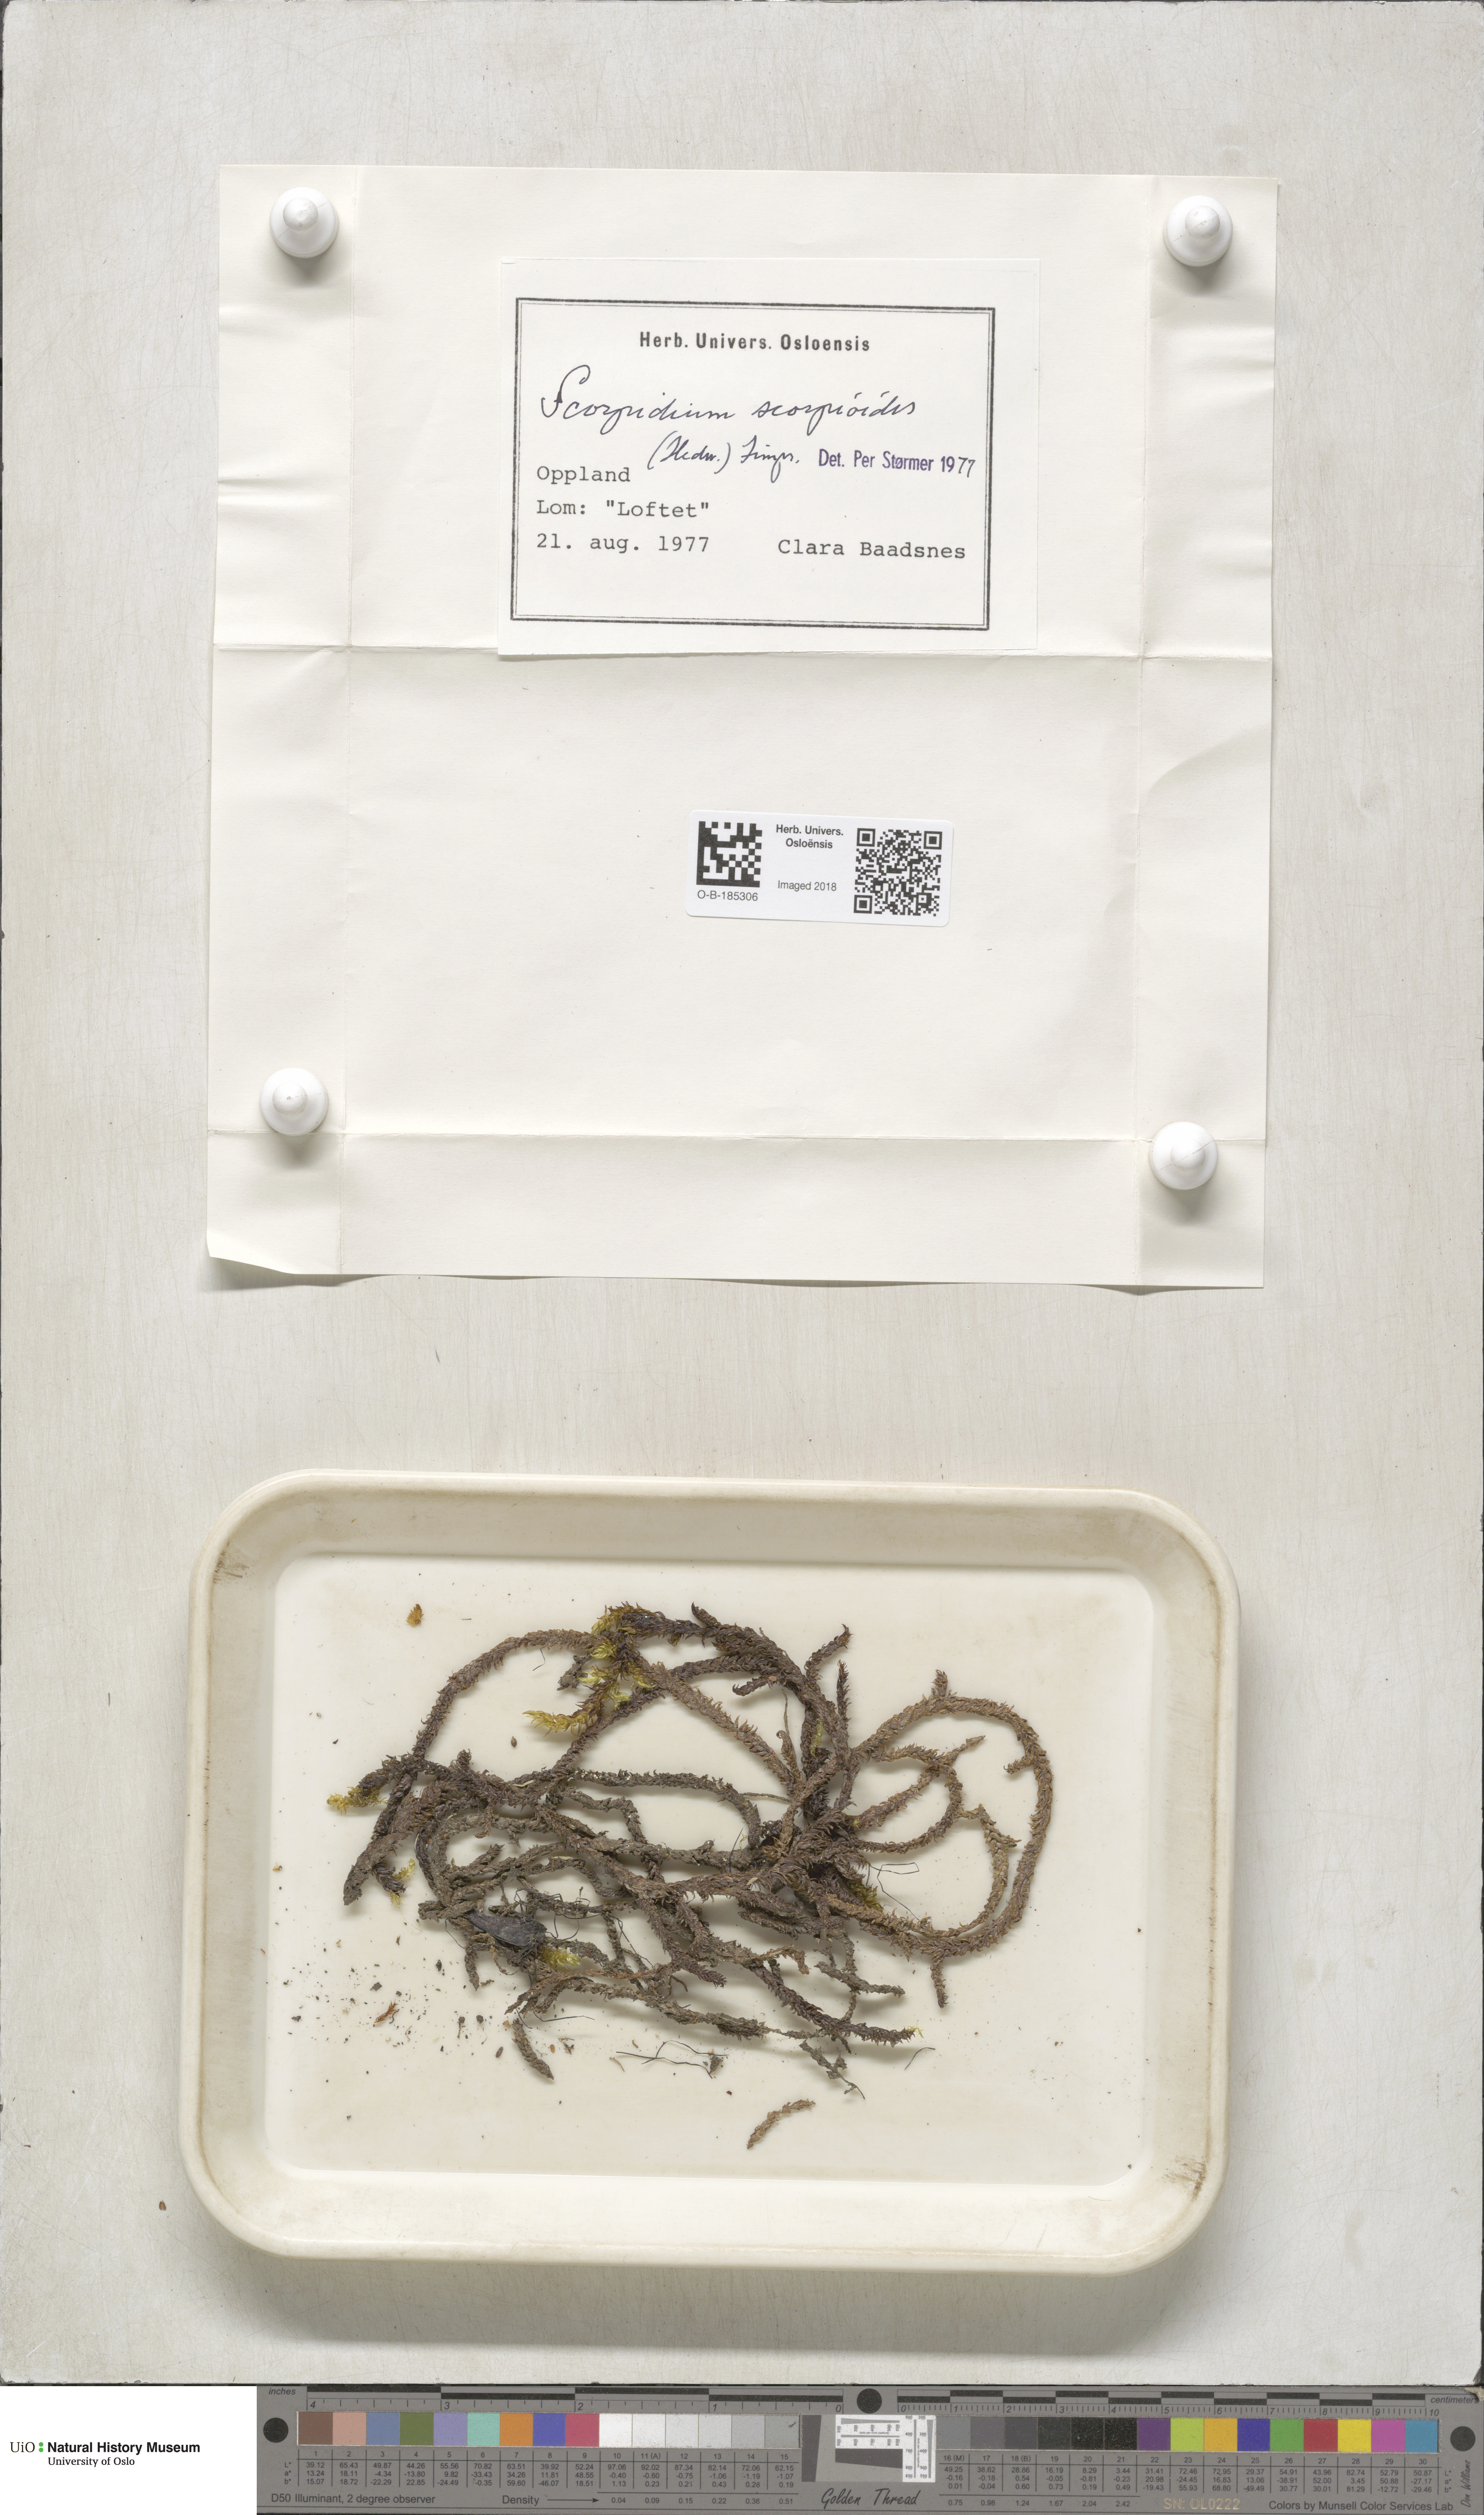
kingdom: Plantae
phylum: Bryophyta
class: Bryopsida
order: Hypnales
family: Scorpidiaceae
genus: Scorpidium
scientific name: Scorpidium scorpioides
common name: Hooked scorpion moss
